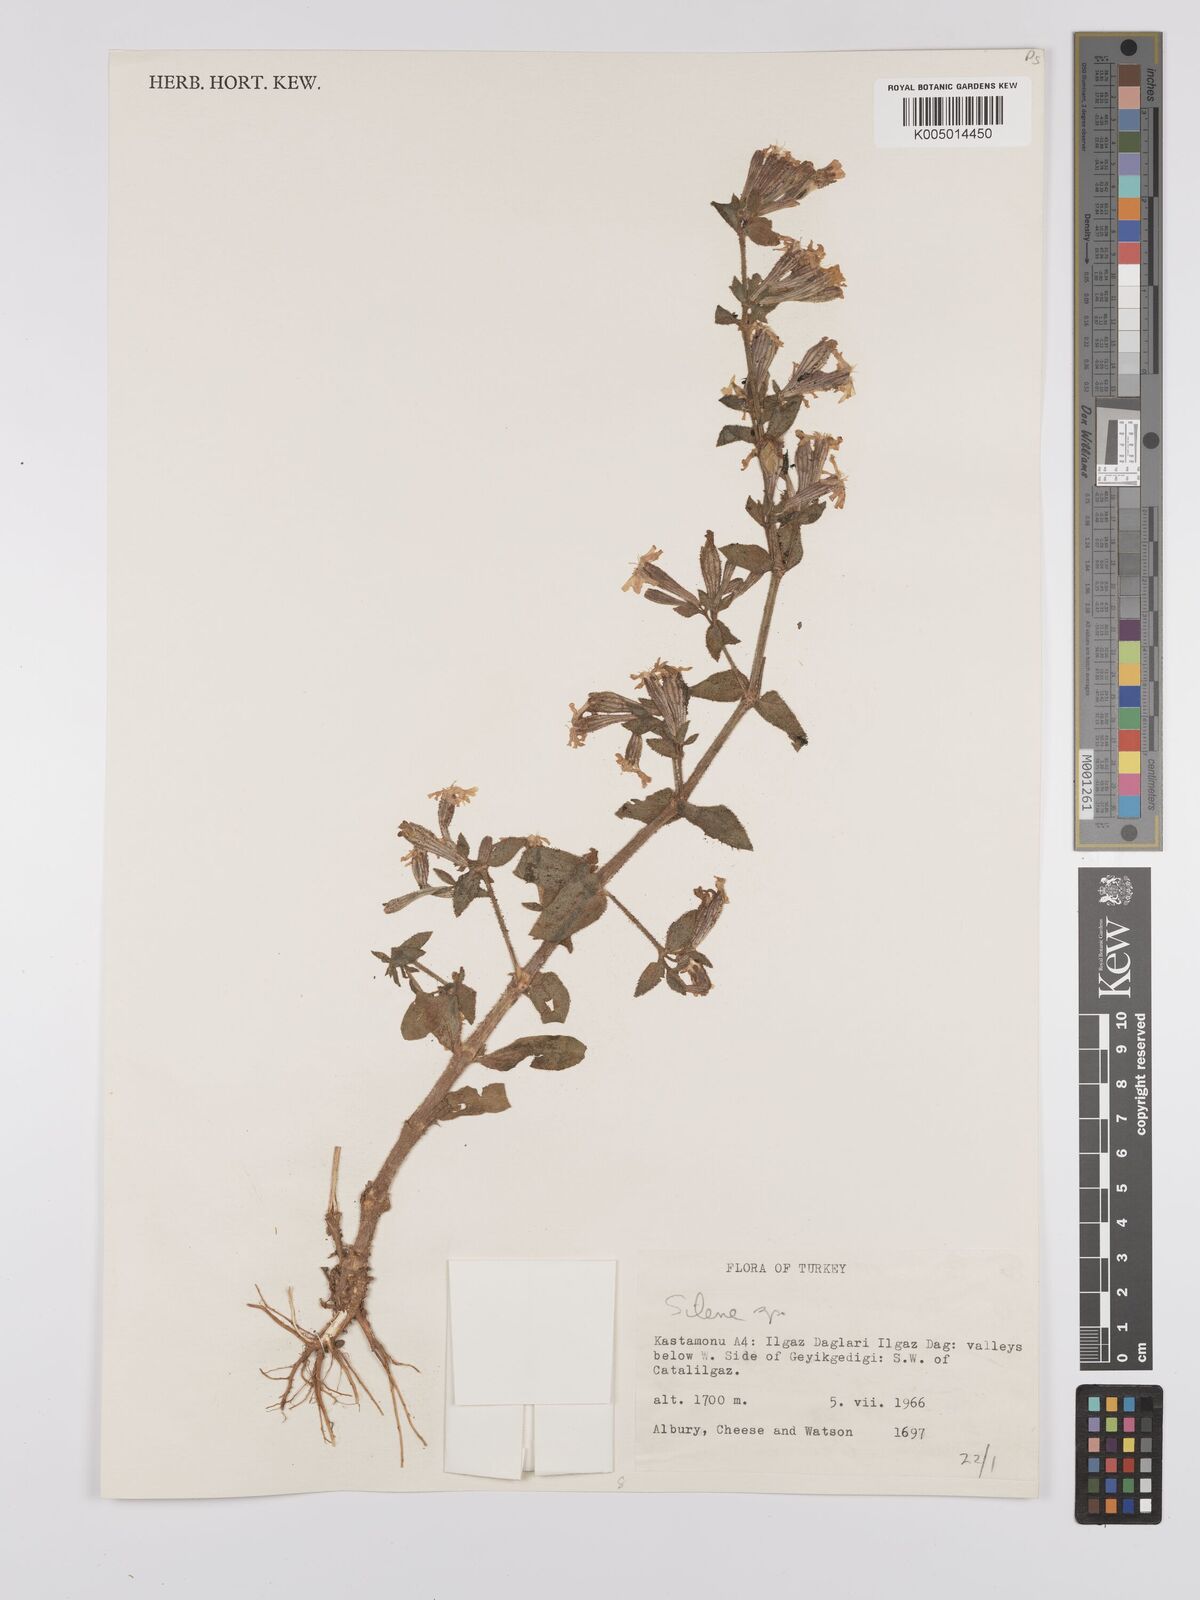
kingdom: Plantae
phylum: Tracheophyta
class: Magnoliopsida
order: Caryophyllales
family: Caryophyllaceae
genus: Silene
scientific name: Silene
